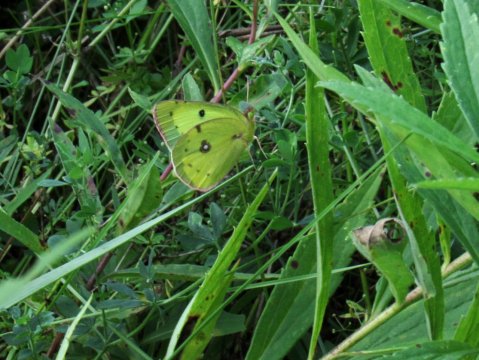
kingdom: Animalia
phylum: Arthropoda
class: Insecta
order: Lepidoptera
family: Pieridae
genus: Colias
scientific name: Colias philodice
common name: Clouded Sulphur
